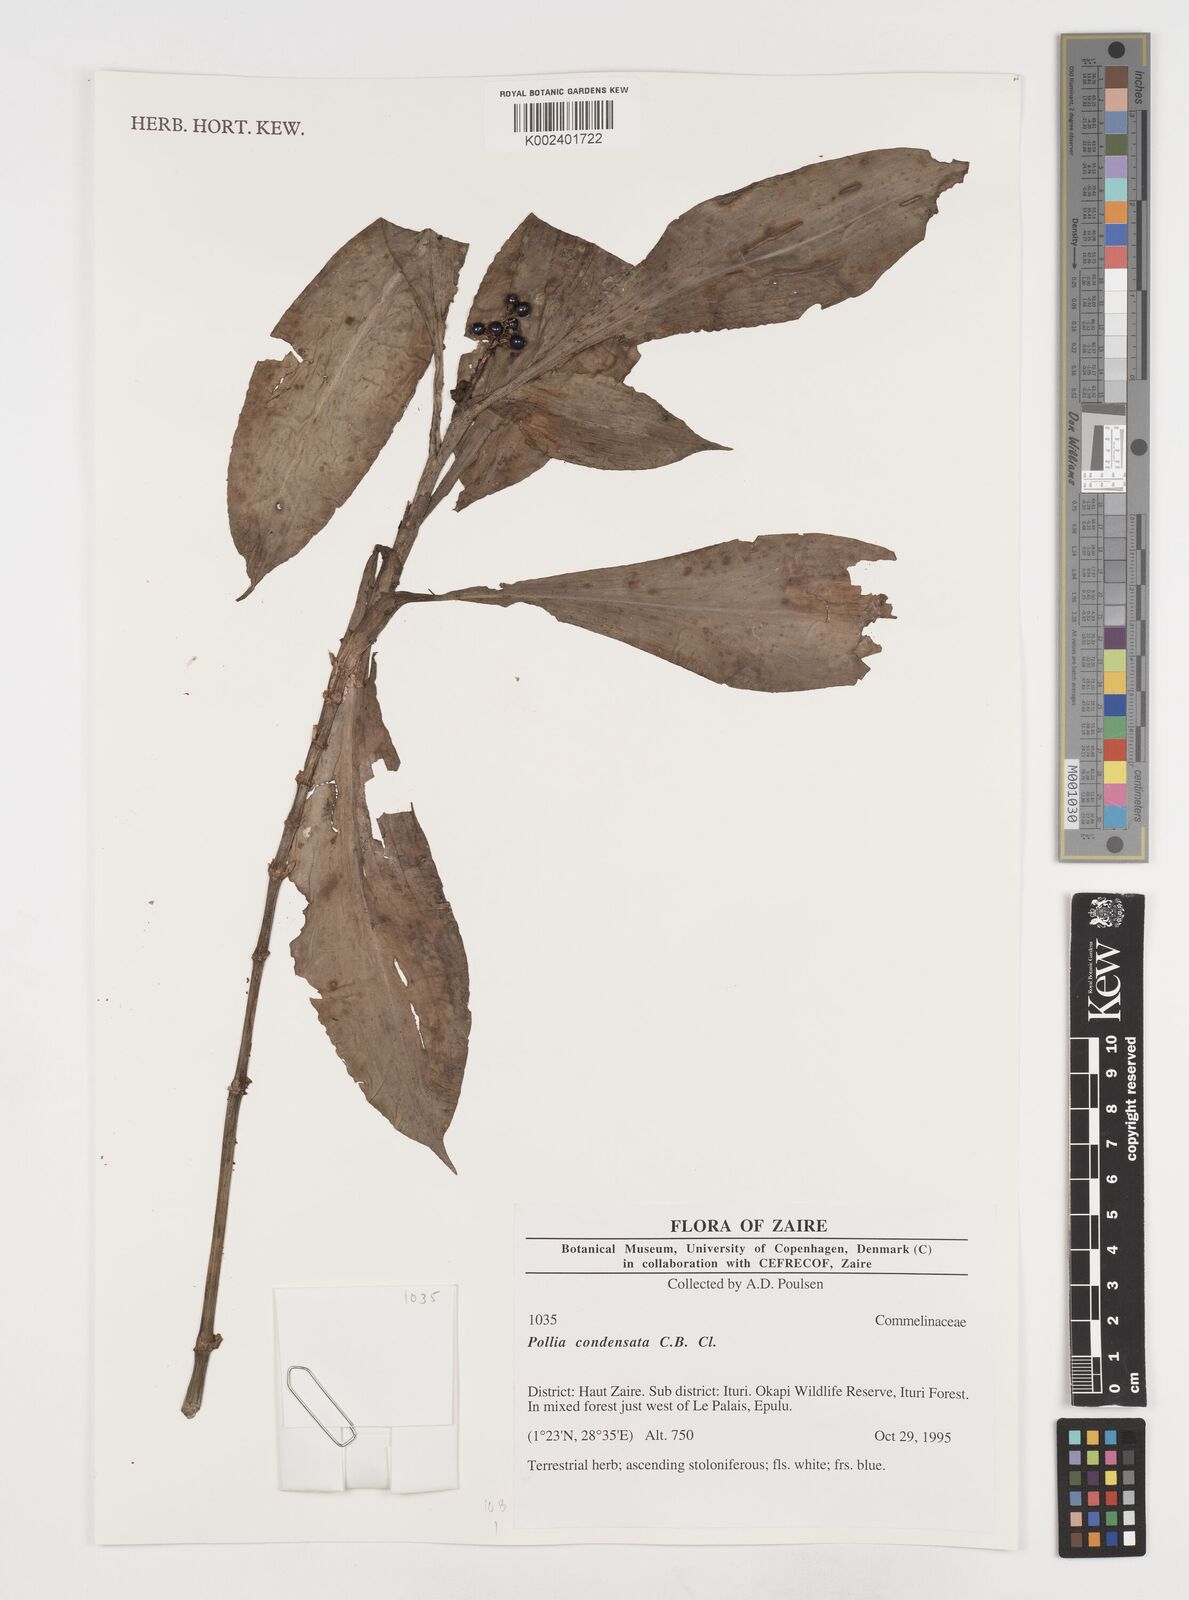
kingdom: Plantae
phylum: Tracheophyta
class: Liliopsida
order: Commelinales
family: Commelinaceae
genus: Pollia
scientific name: Pollia condensata
